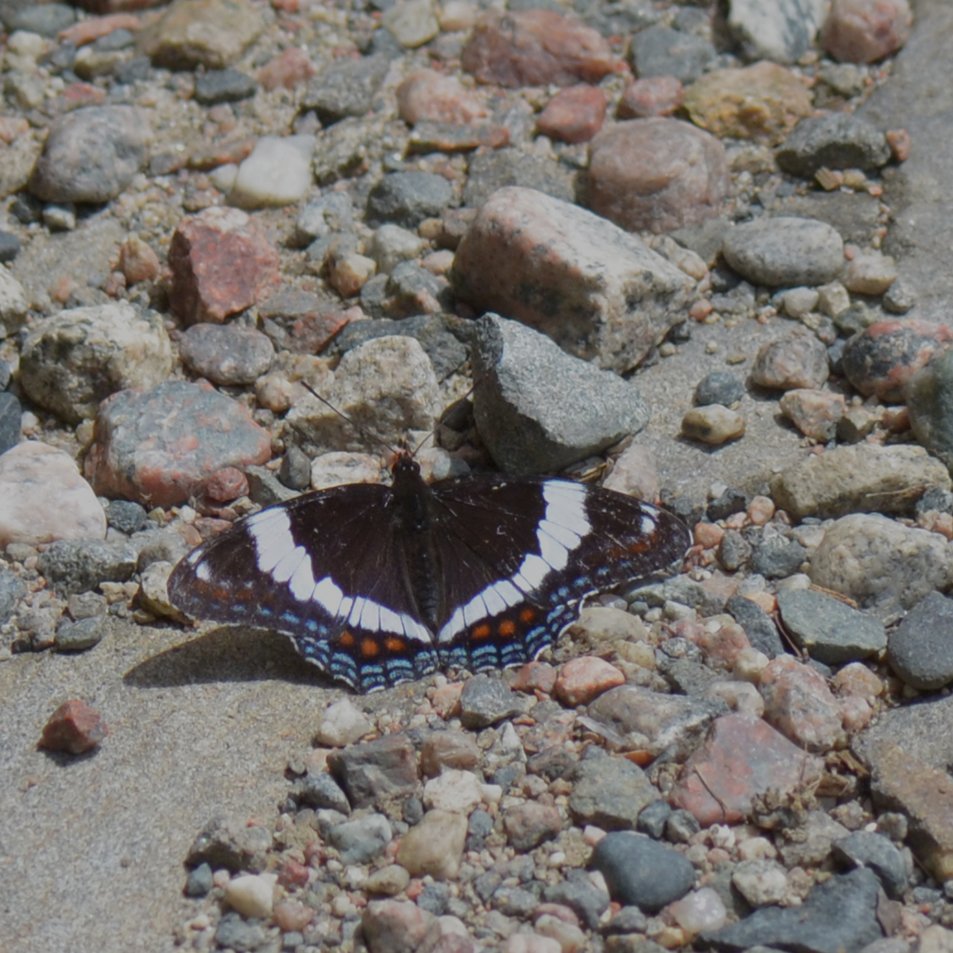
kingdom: Animalia
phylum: Arthropoda
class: Insecta
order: Lepidoptera
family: Nymphalidae
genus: Limenitis
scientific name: Limenitis arthemis
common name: Red-spotted Admiral
